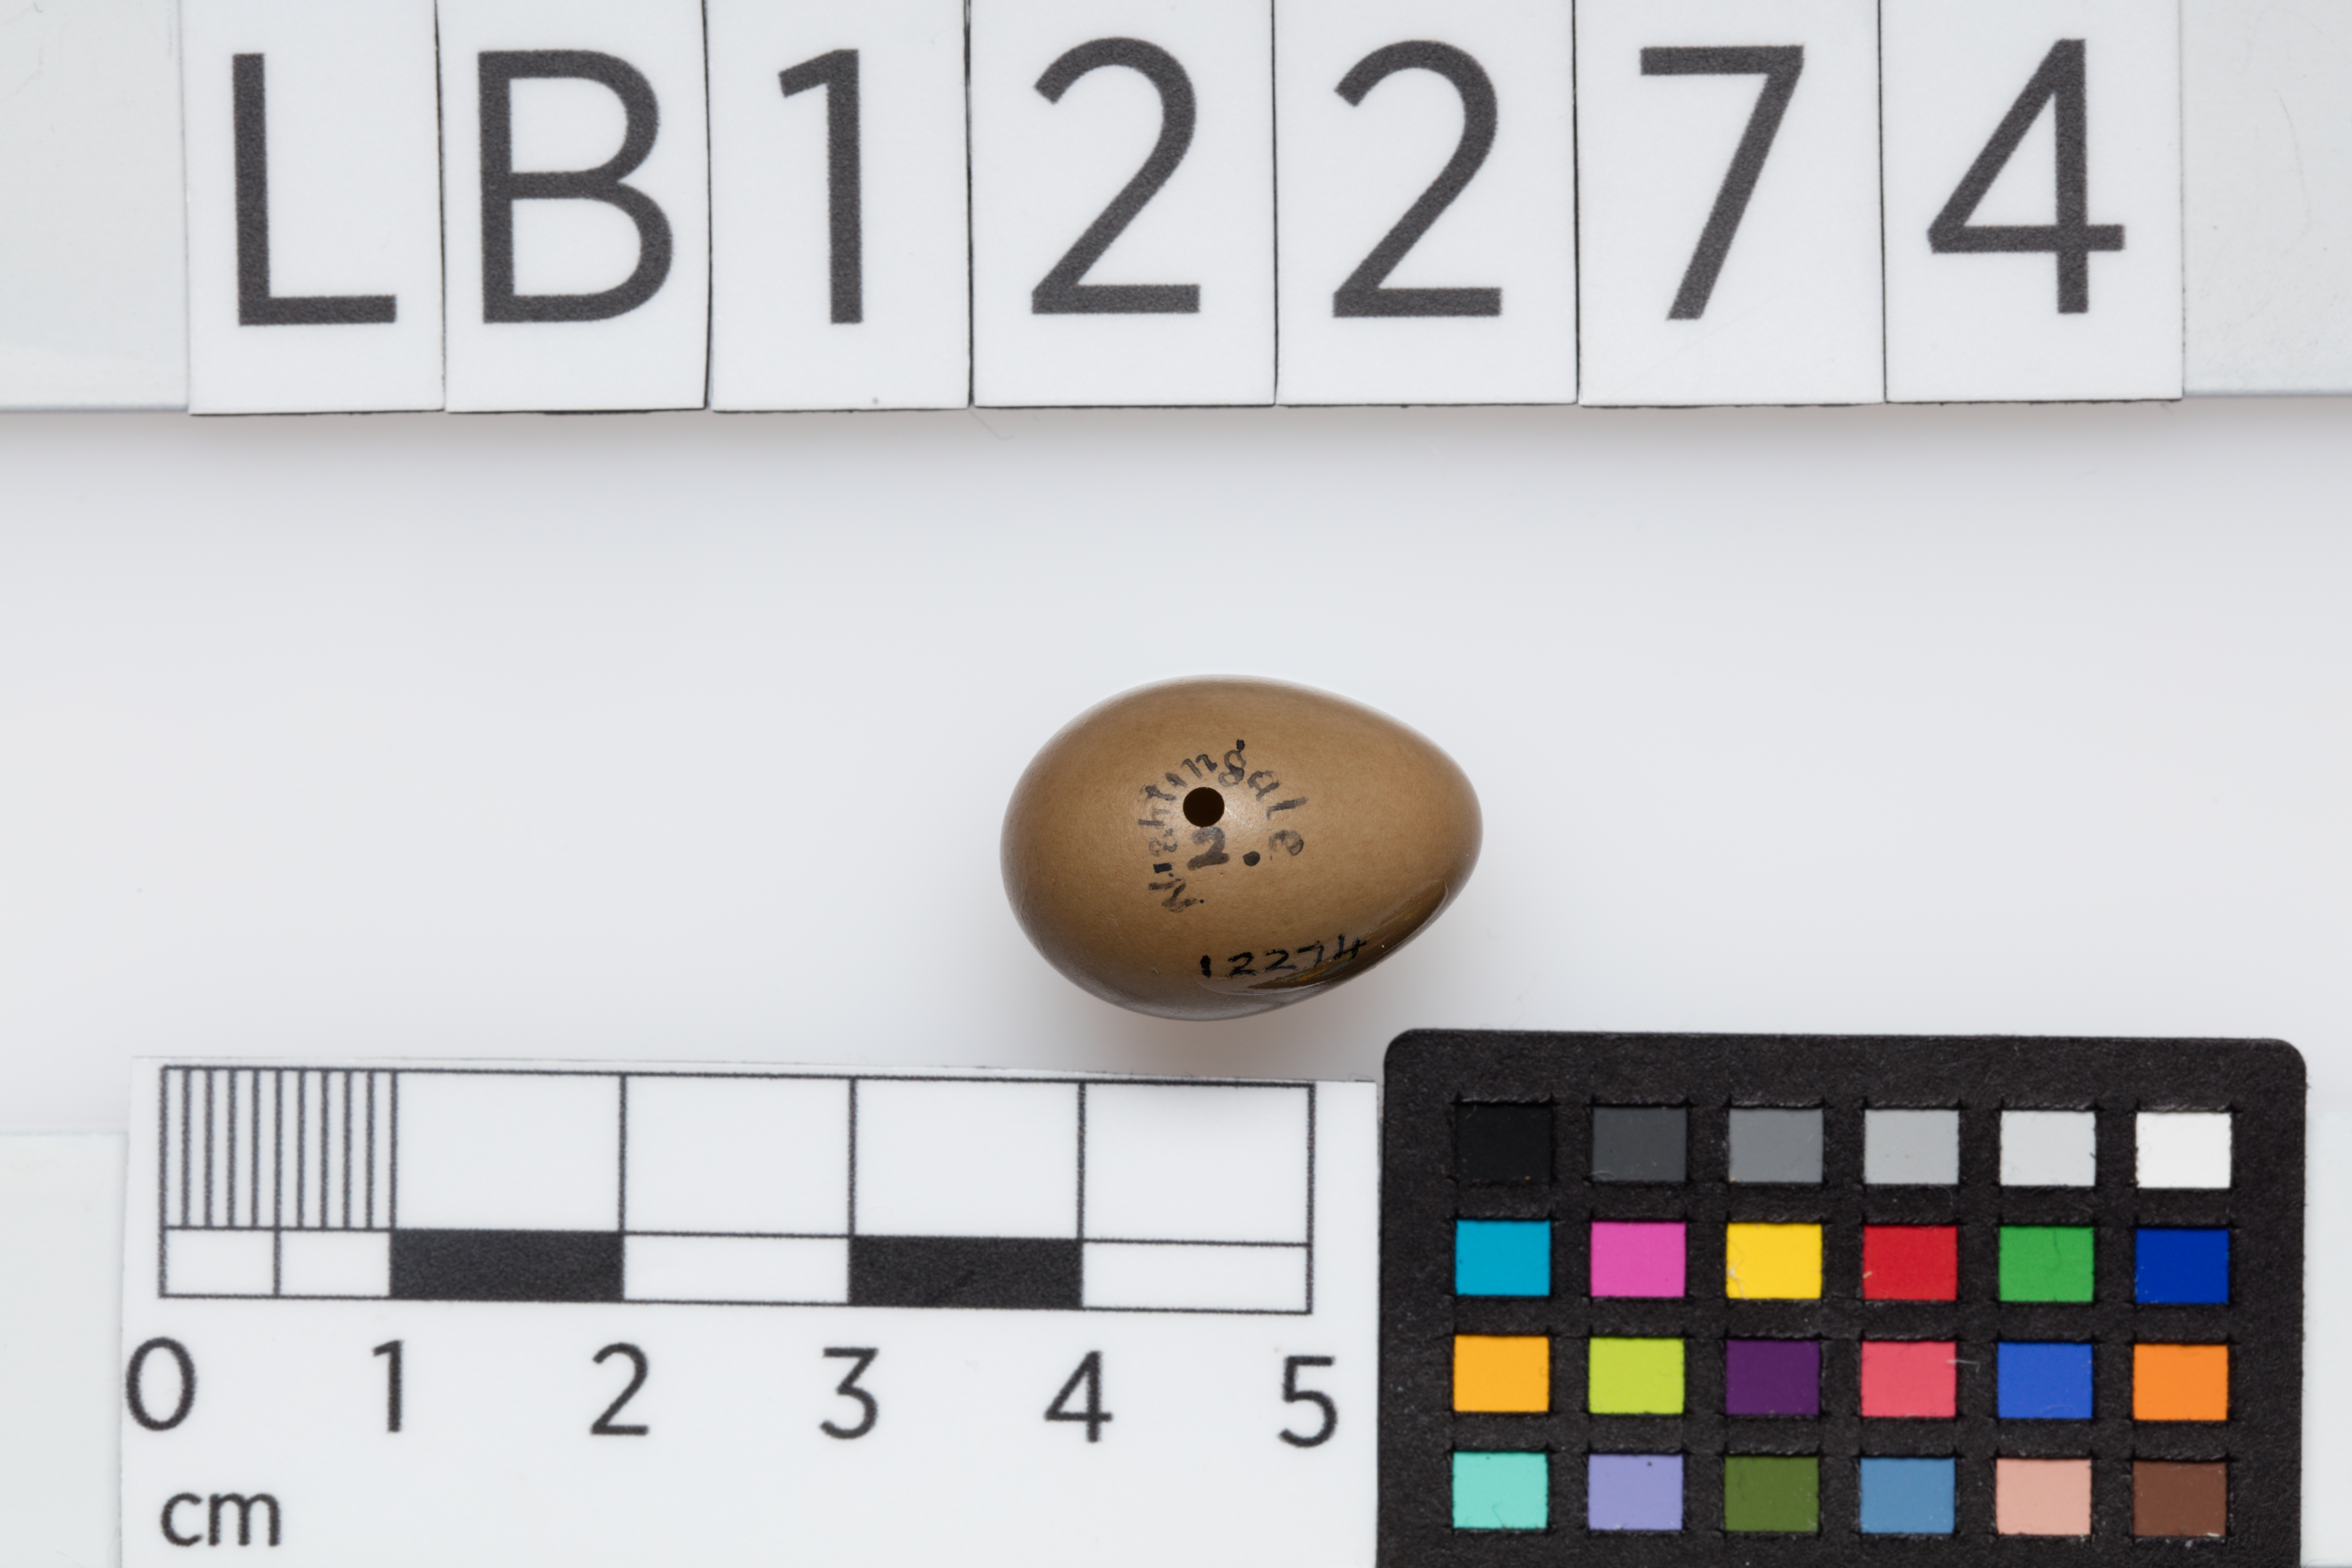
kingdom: Animalia
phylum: Chordata
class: Aves
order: Passeriformes
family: Muscicapidae
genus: Luscinia
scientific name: Luscinia megarhynchos
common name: Common nightingale
